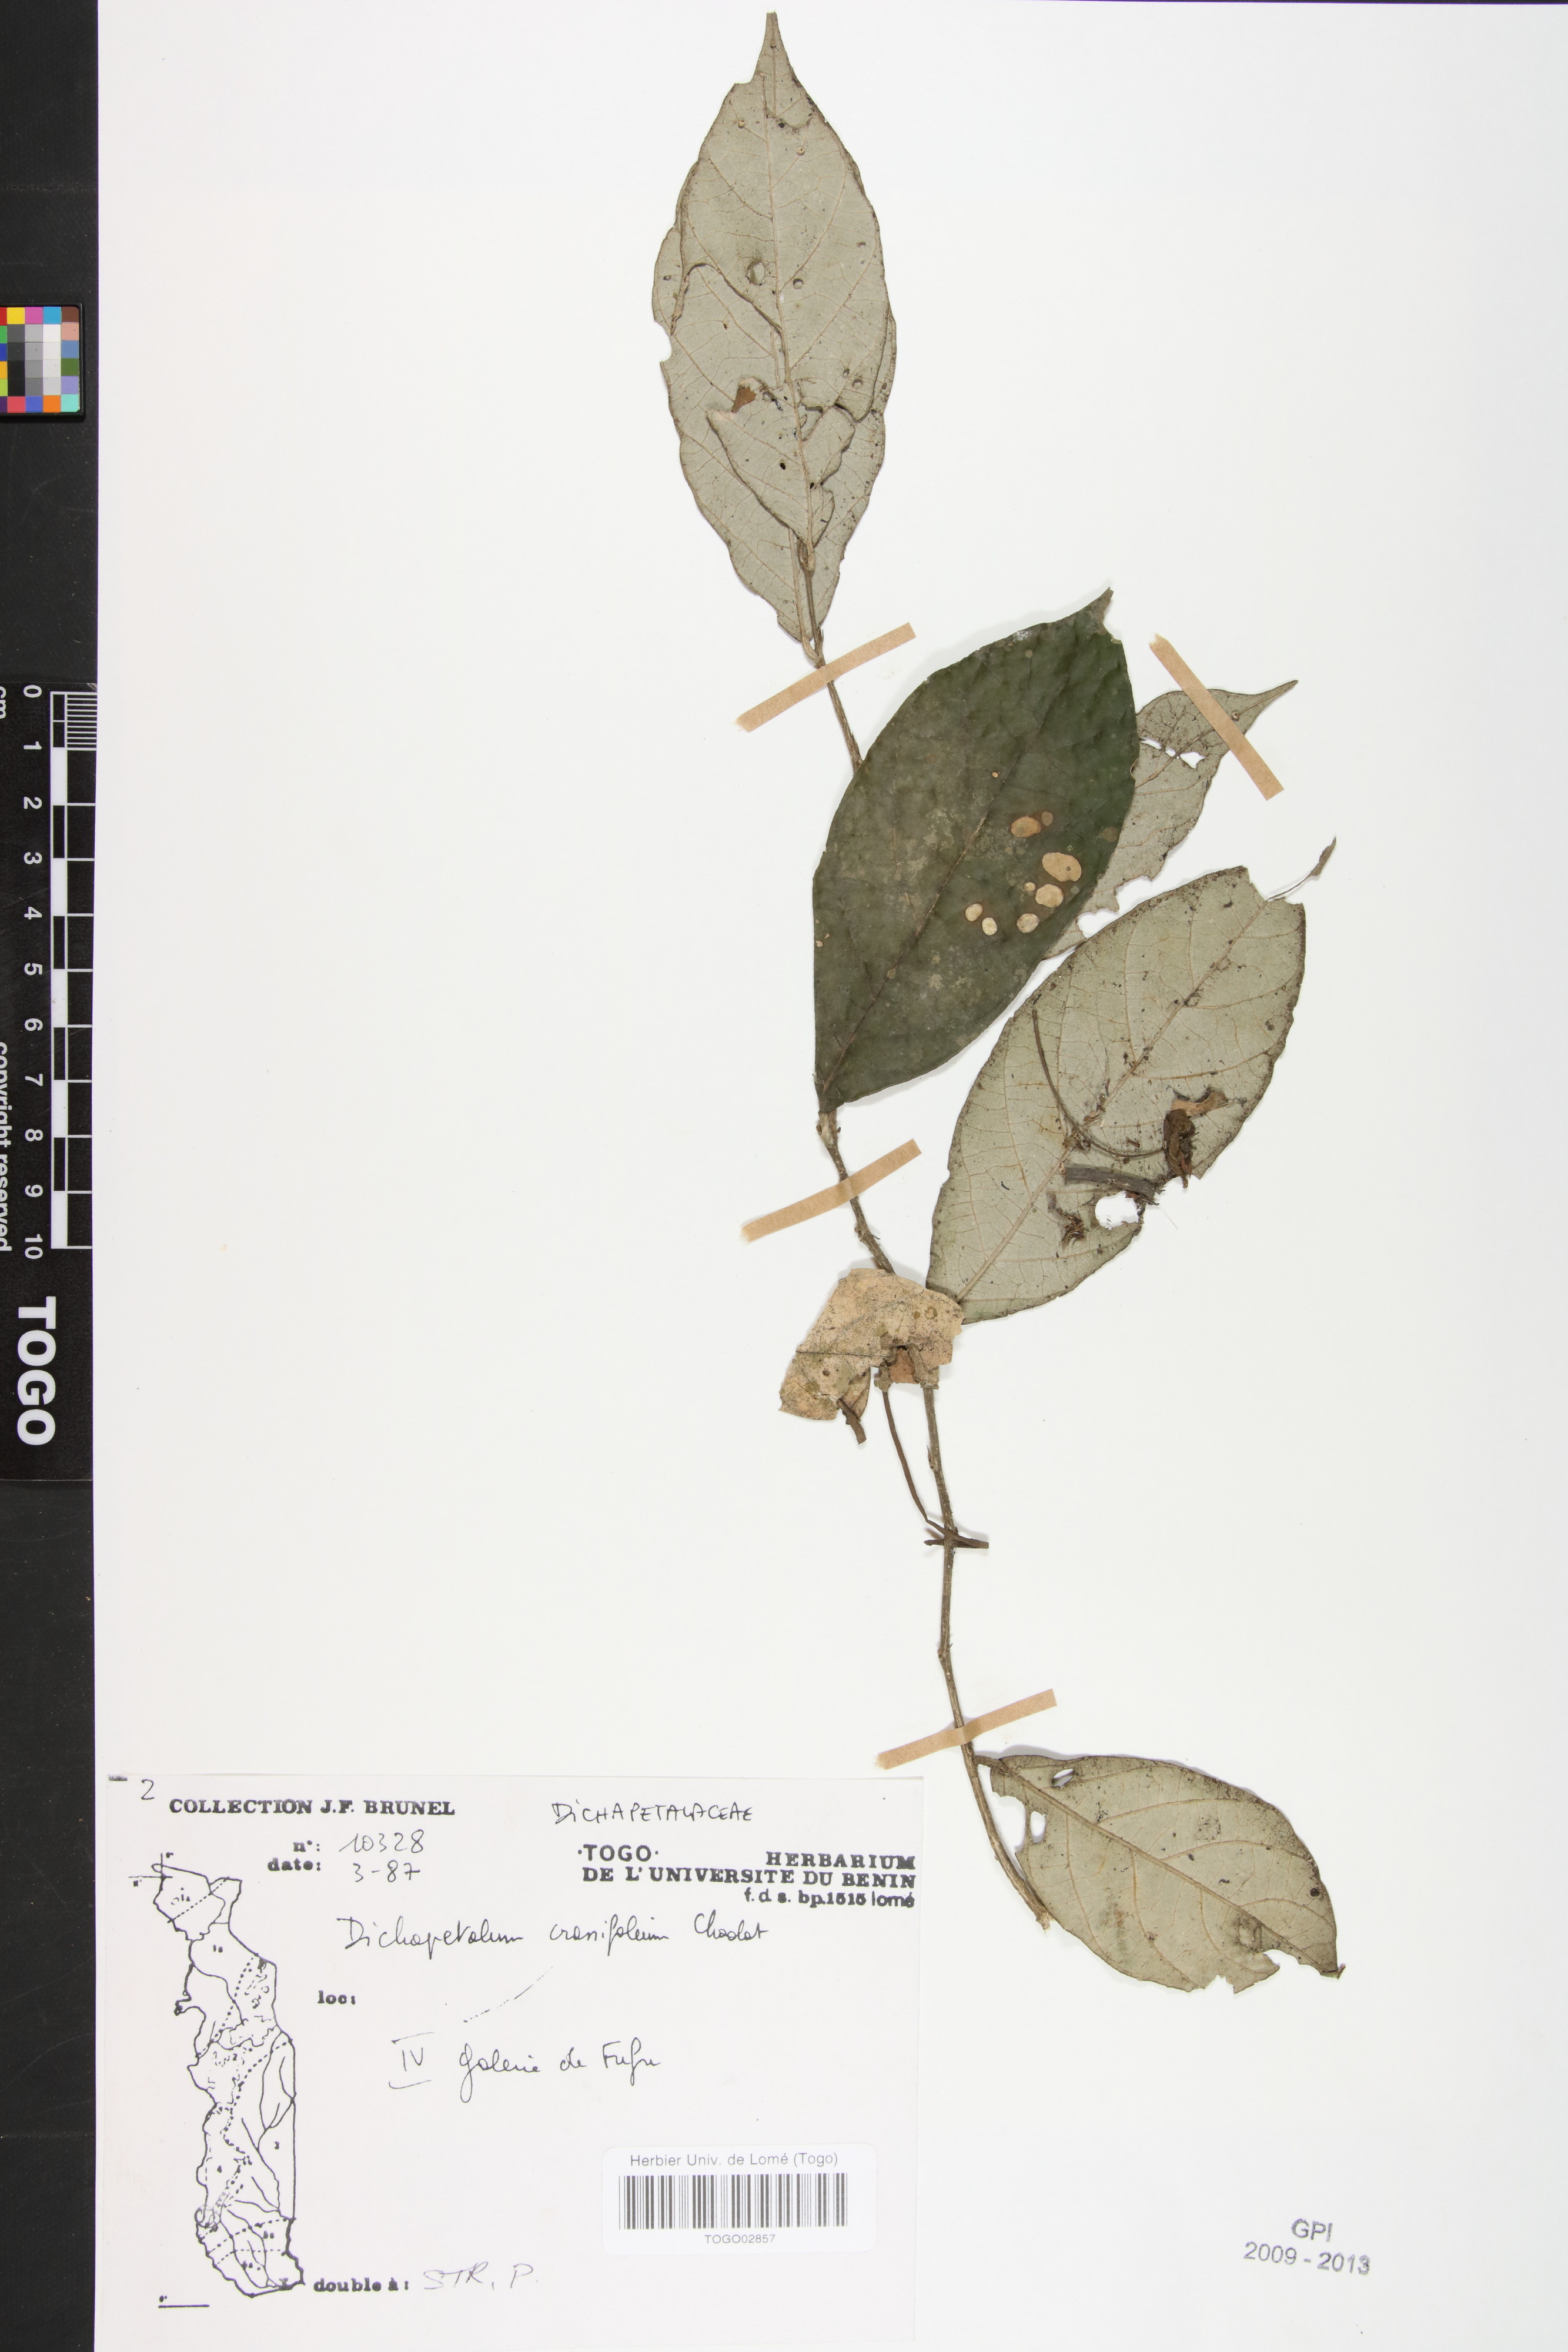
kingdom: Plantae
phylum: Tracheophyta
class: Magnoliopsida
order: Malpighiales
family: Dichapetalaceae
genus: Dichapetalum
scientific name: Dichapetalum crassifolium
